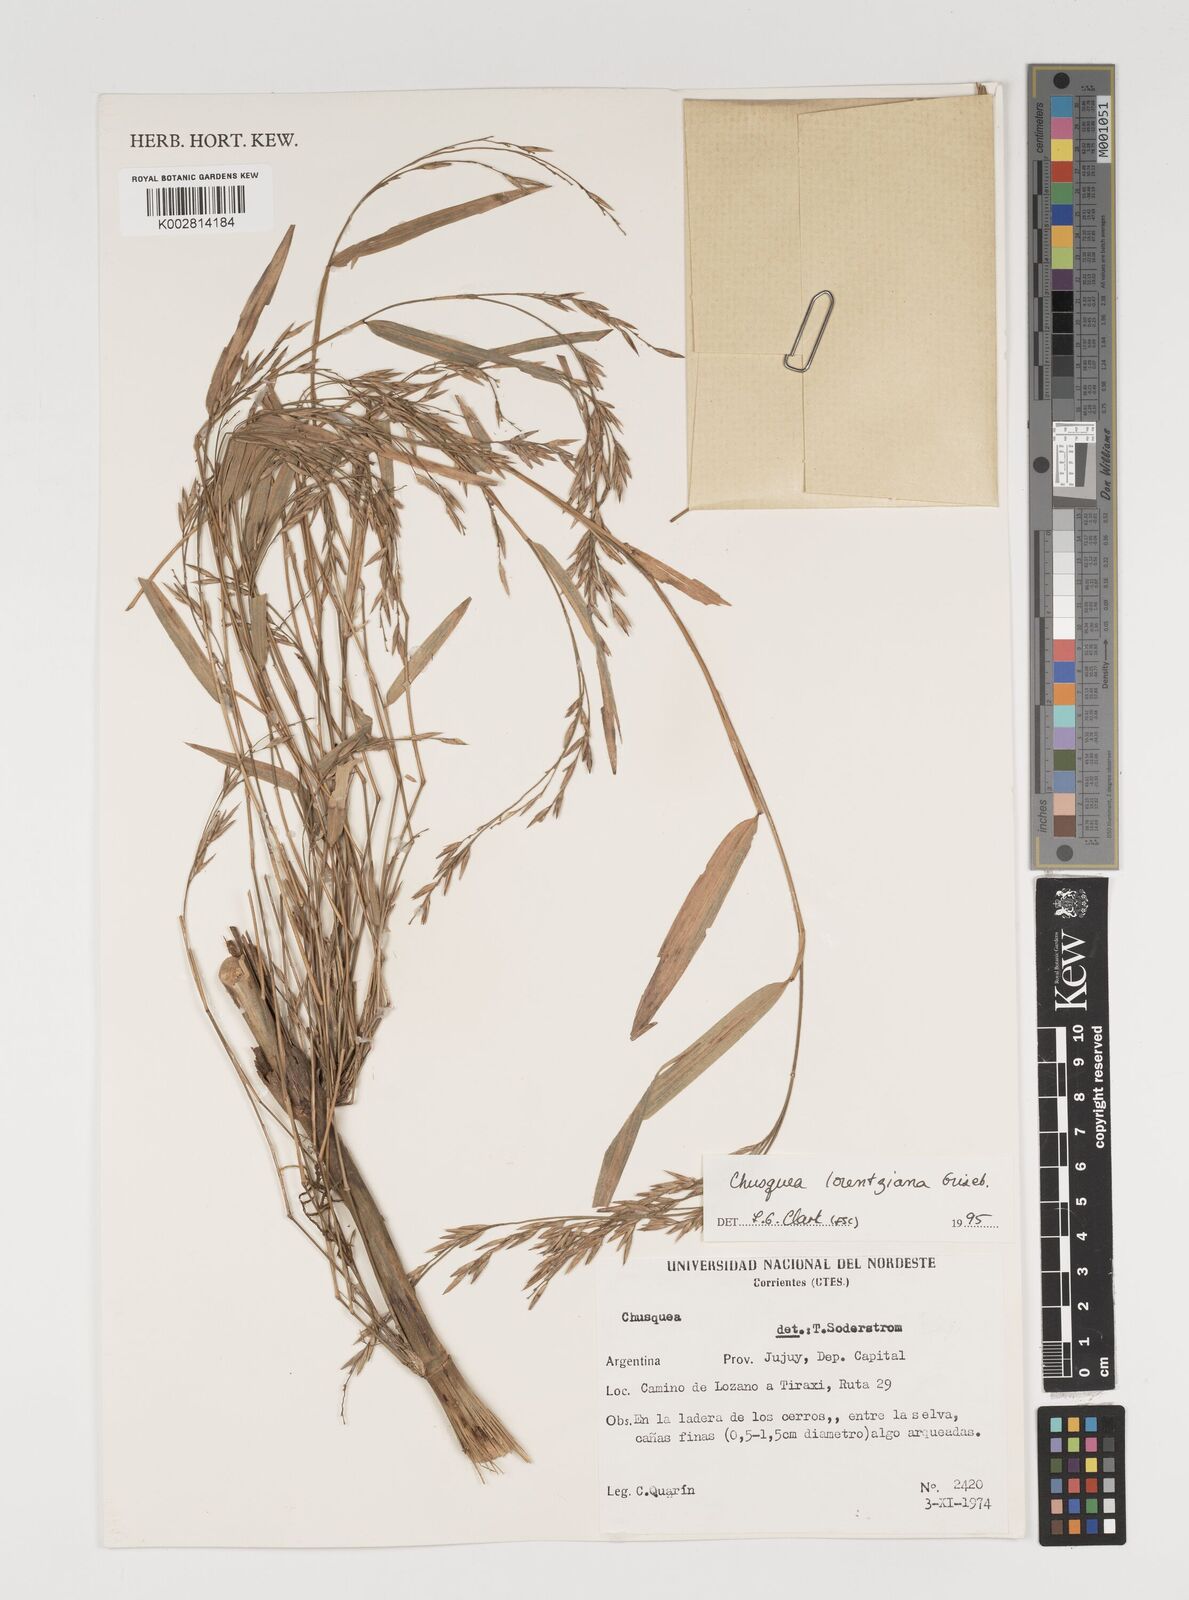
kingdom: Plantae
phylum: Tracheophyta
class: Liliopsida
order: Poales
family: Poaceae
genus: Chusquea
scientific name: Chusquea lorentziana
